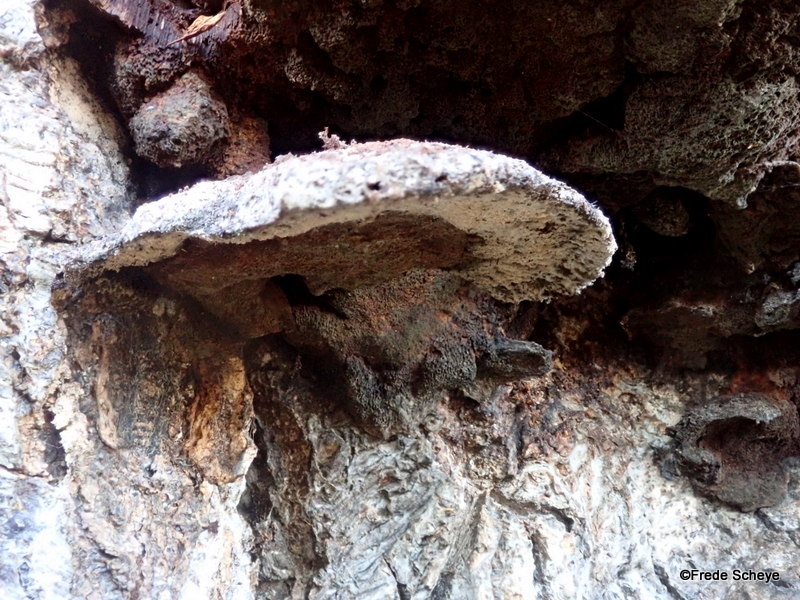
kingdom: Fungi
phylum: Basidiomycota
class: Agaricomycetes
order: Hymenochaetales
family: Hymenochaetaceae
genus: Inonotus
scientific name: Inonotus cuticularis
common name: kroghåret spejlporesvamp
